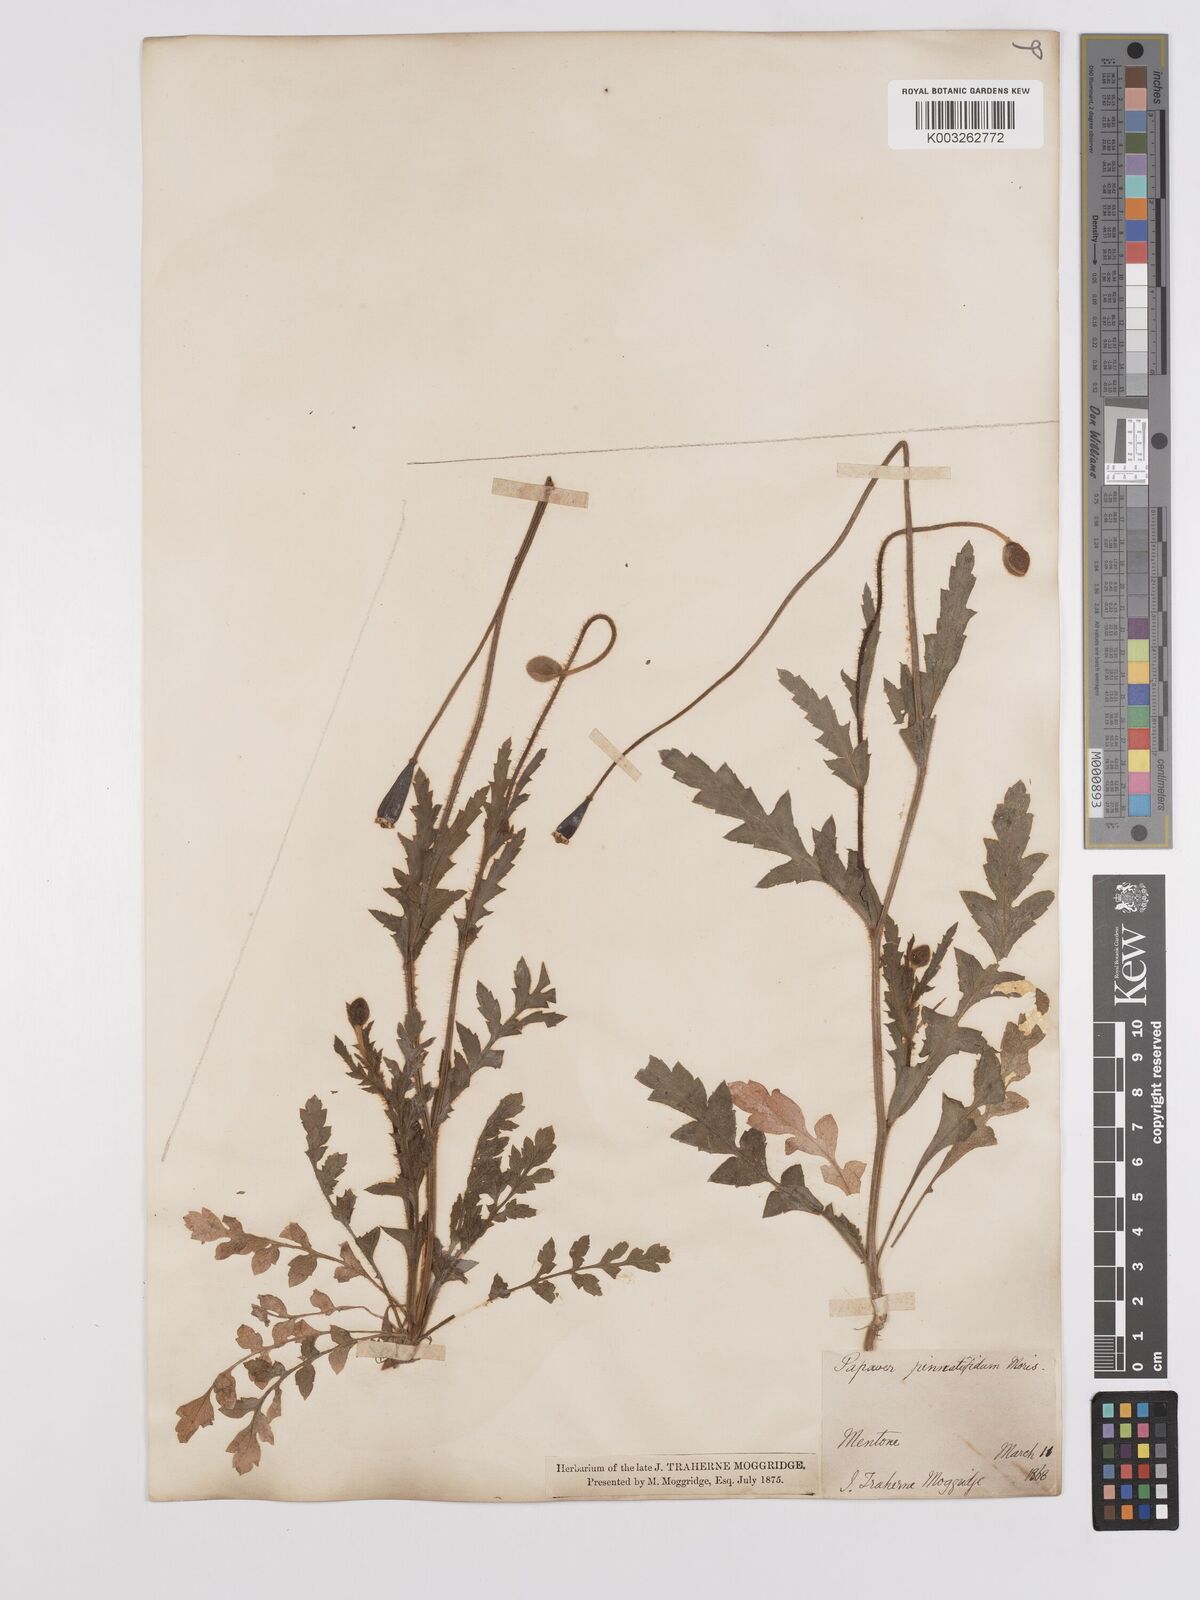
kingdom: Plantae
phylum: Tracheophyta
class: Magnoliopsida
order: Ranunculales
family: Papaveraceae
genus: Papaver
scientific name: Papaver pinnatifidum
